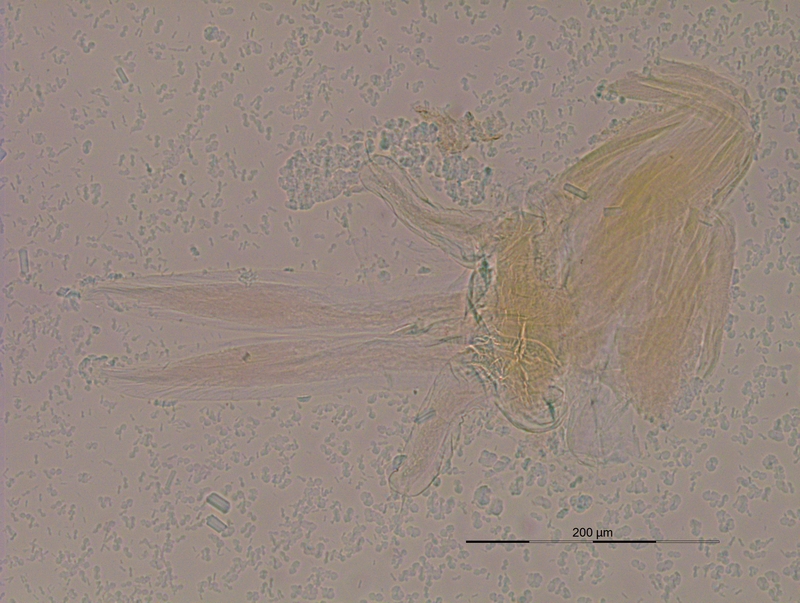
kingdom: Animalia
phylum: Arthropoda
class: Diplopoda
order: Julida
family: Blaniulidae
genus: Nopoiulus
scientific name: Nopoiulus palmatus
